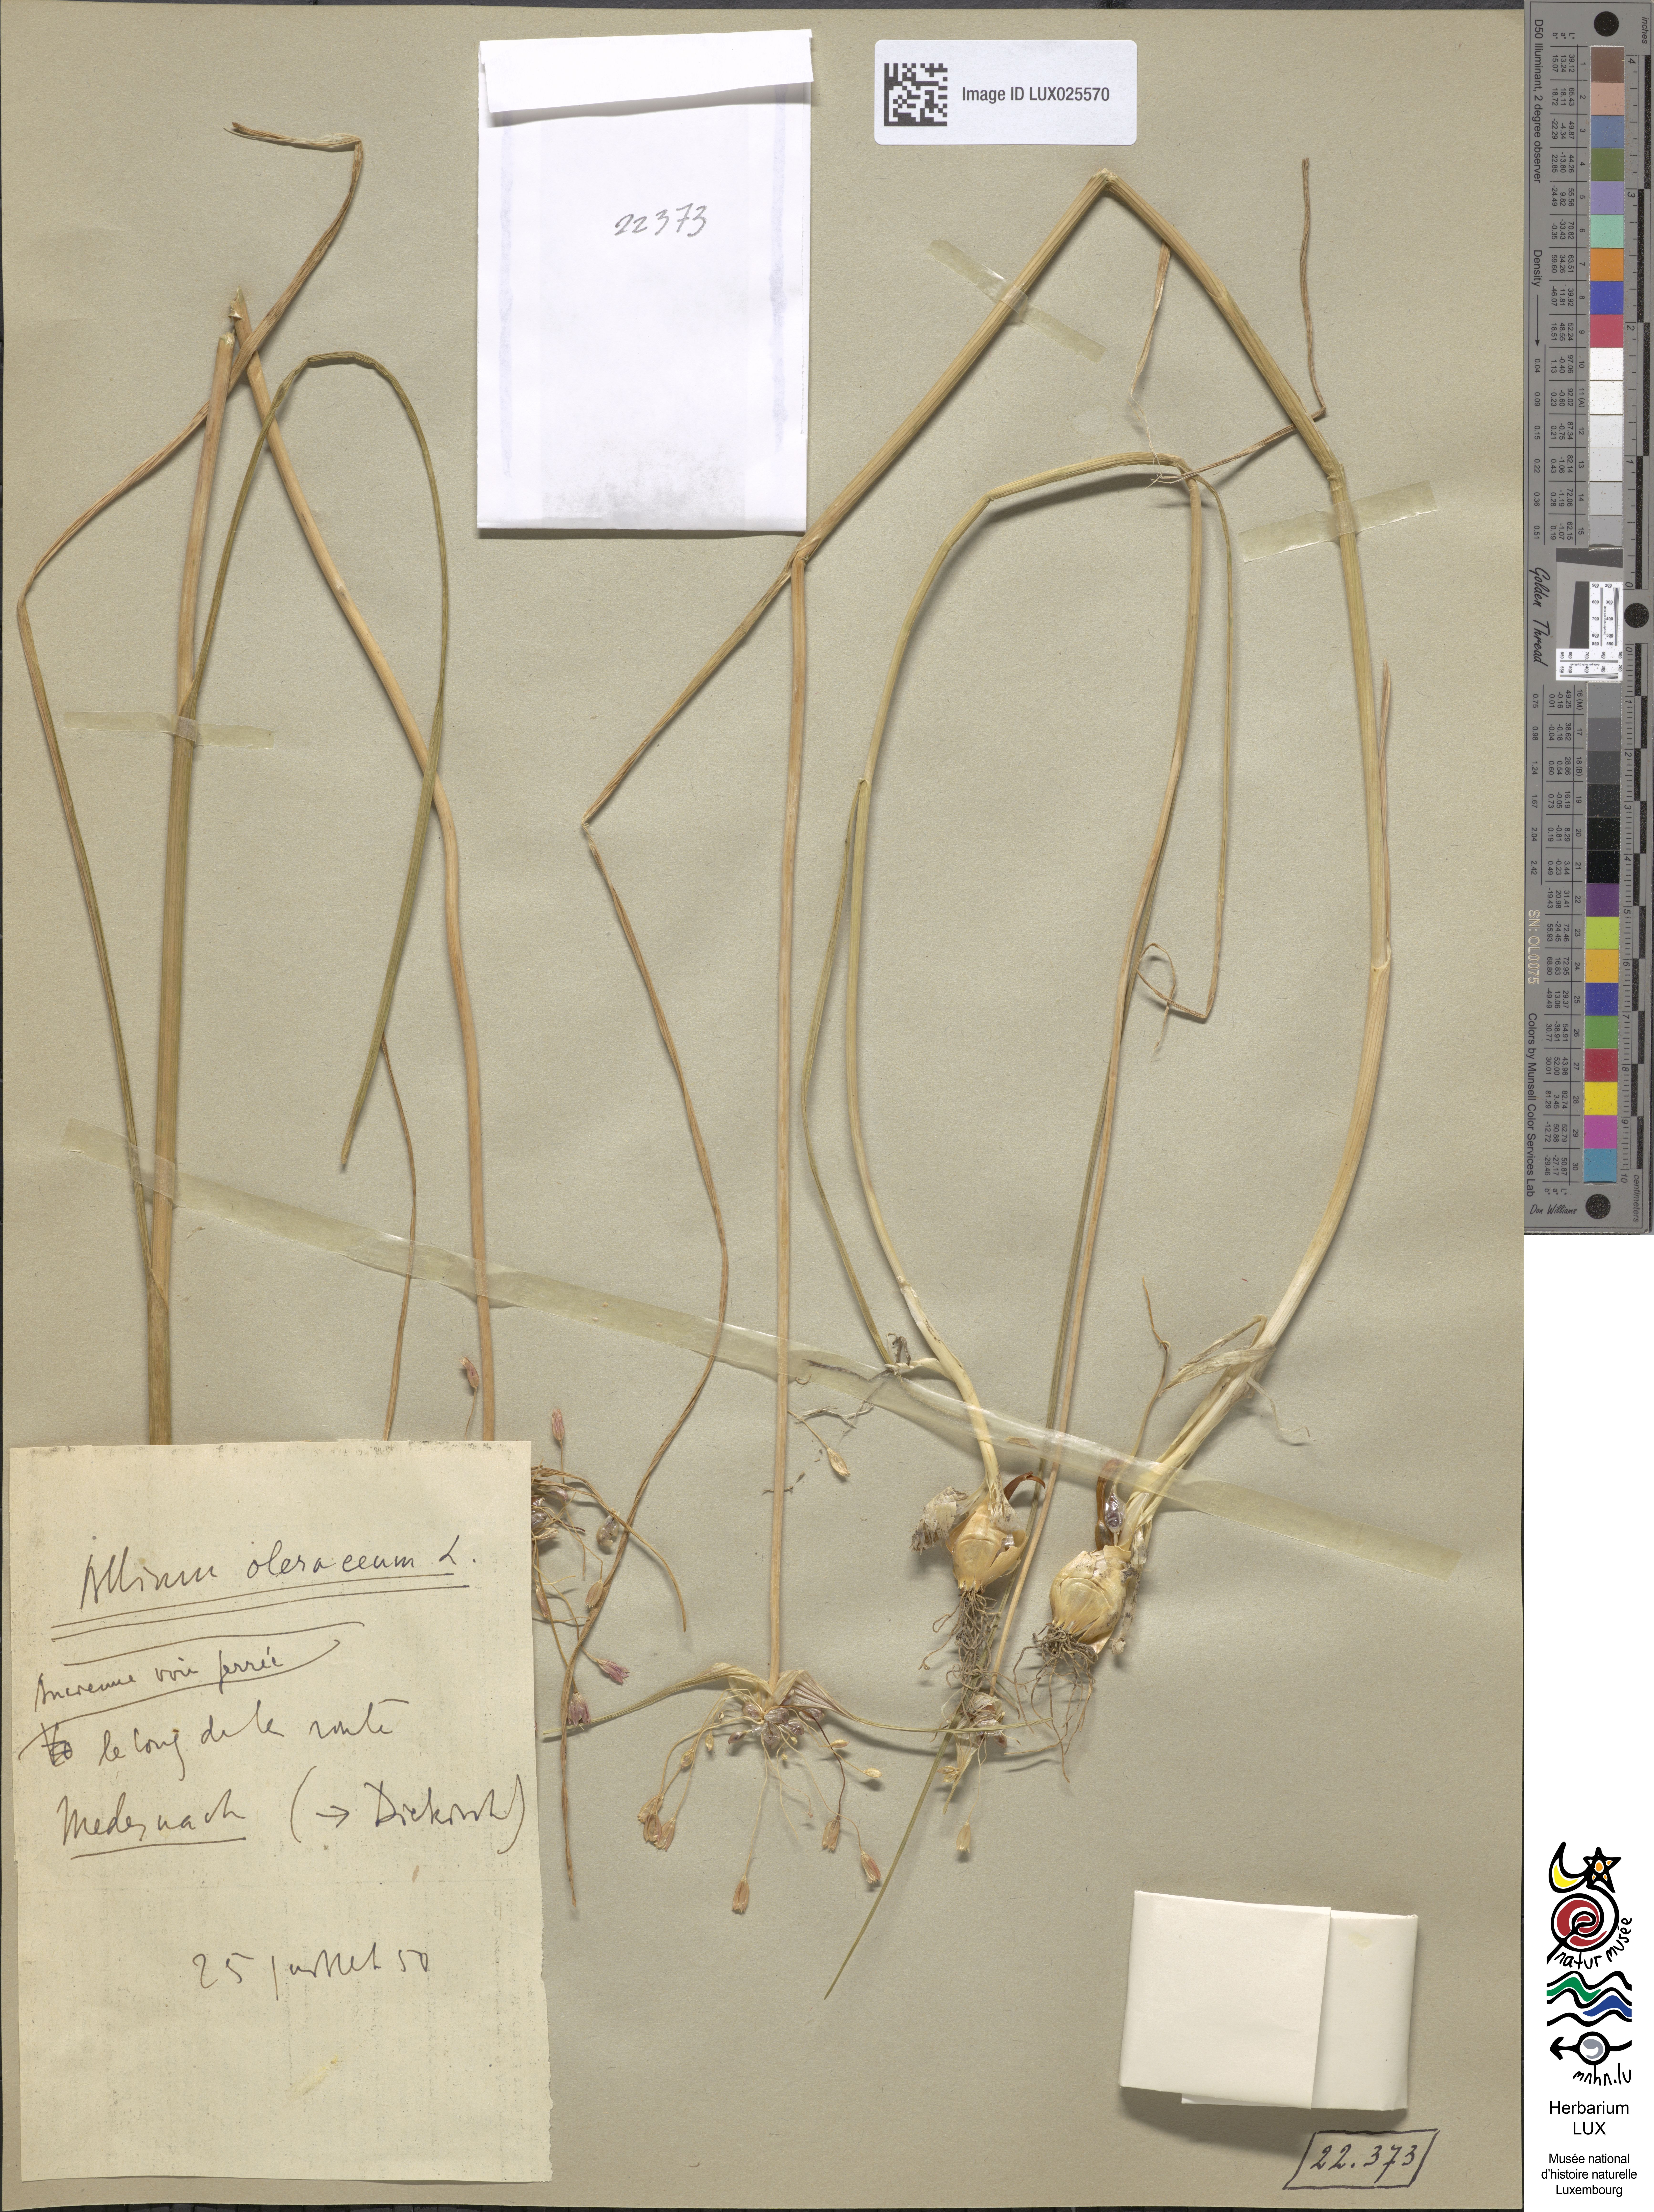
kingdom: Plantae
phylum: Tracheophyta
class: Liliopsida
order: Asparagales
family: Amaryllidaceae
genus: Allium
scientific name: Allium oleraceum
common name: Field garlic
